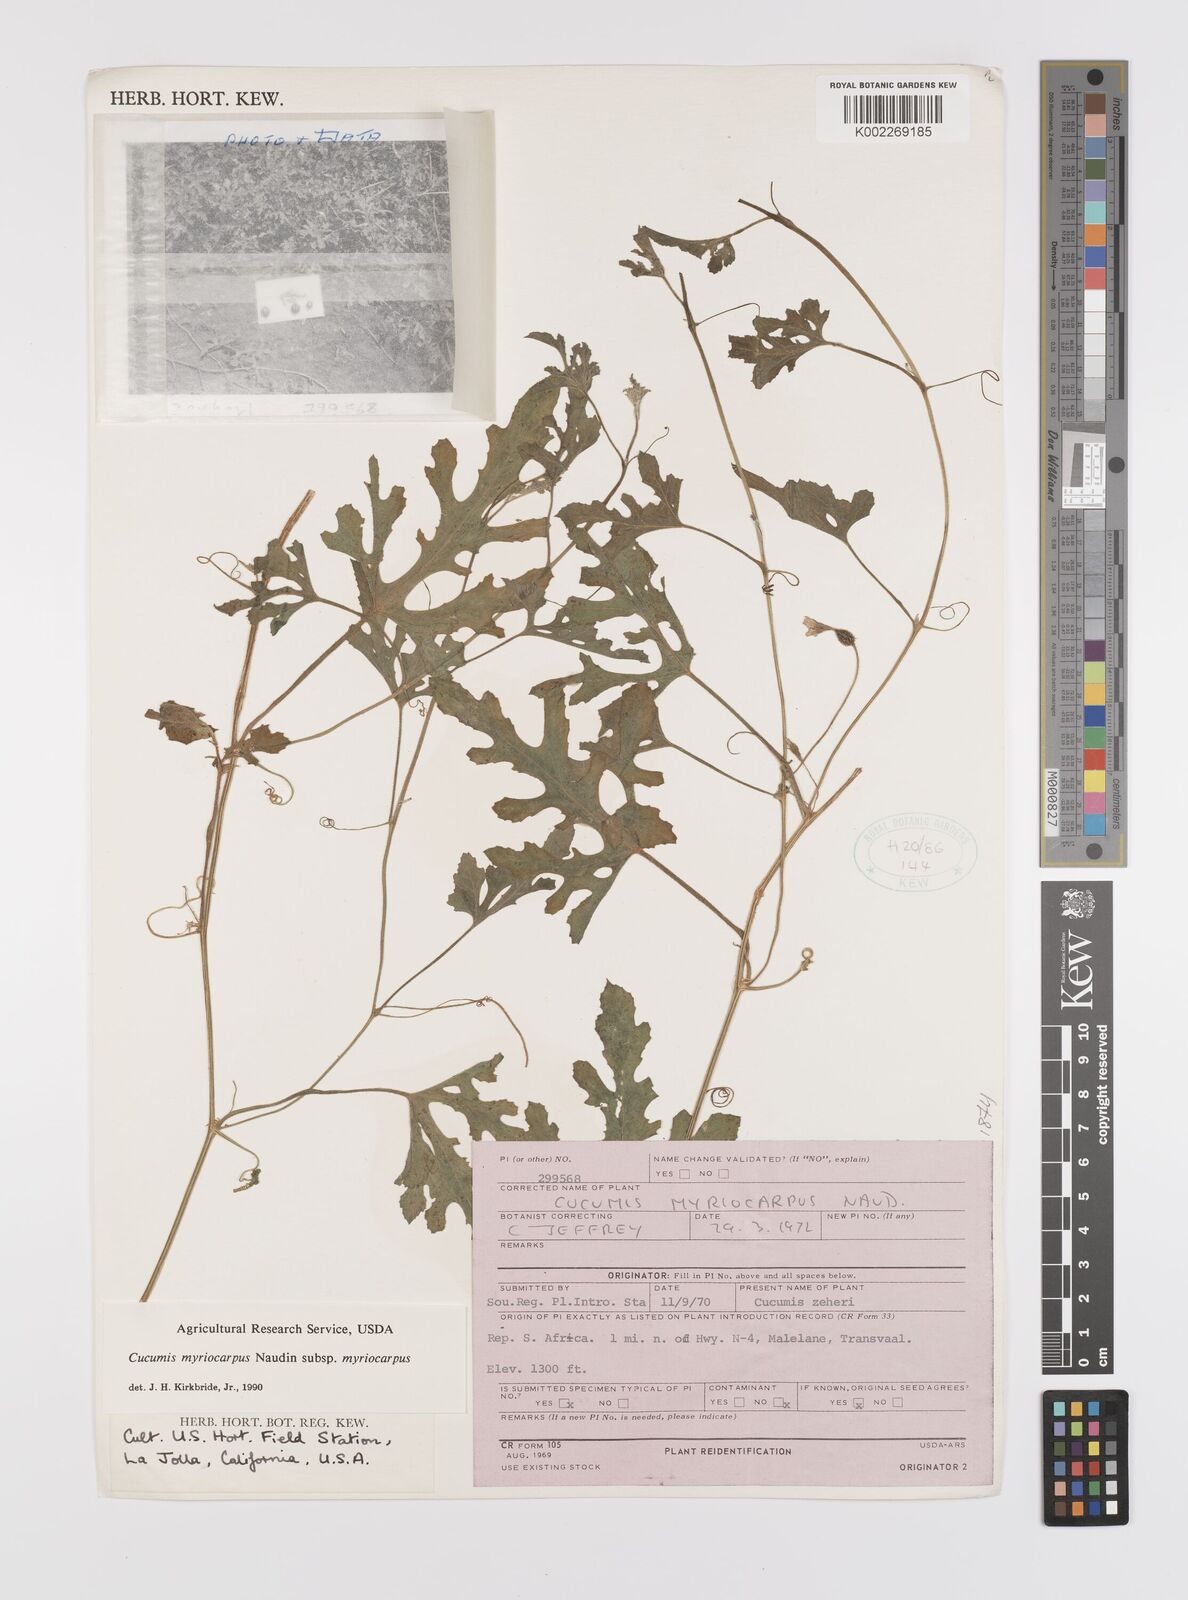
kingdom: Plantae
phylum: Tracheophyta
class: Magnoliopsida
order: Cucurbitales
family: Cucurbitaceae
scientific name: Cucurbitaceae
